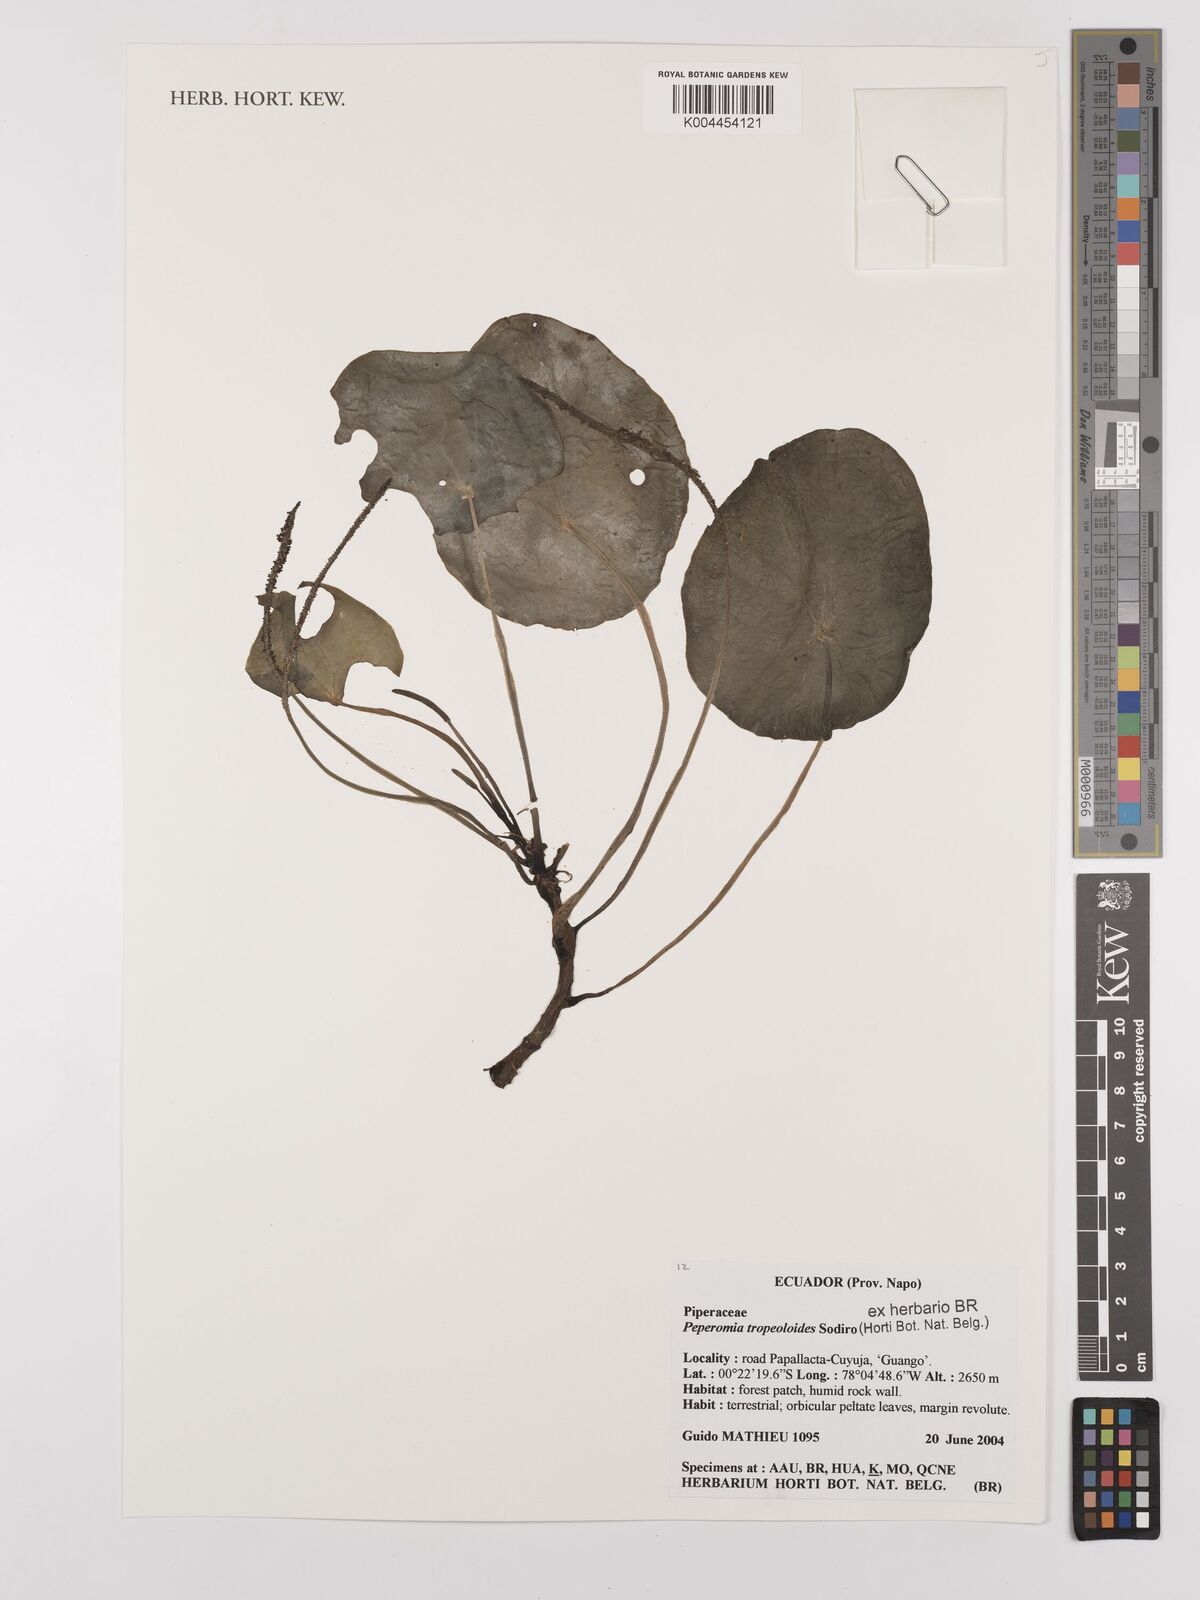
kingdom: Plantae
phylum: Tracheophyta
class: Magnoliopsida
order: Piperales
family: Piperaceae
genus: Peperomia
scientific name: Peperomia tropaeoloides
